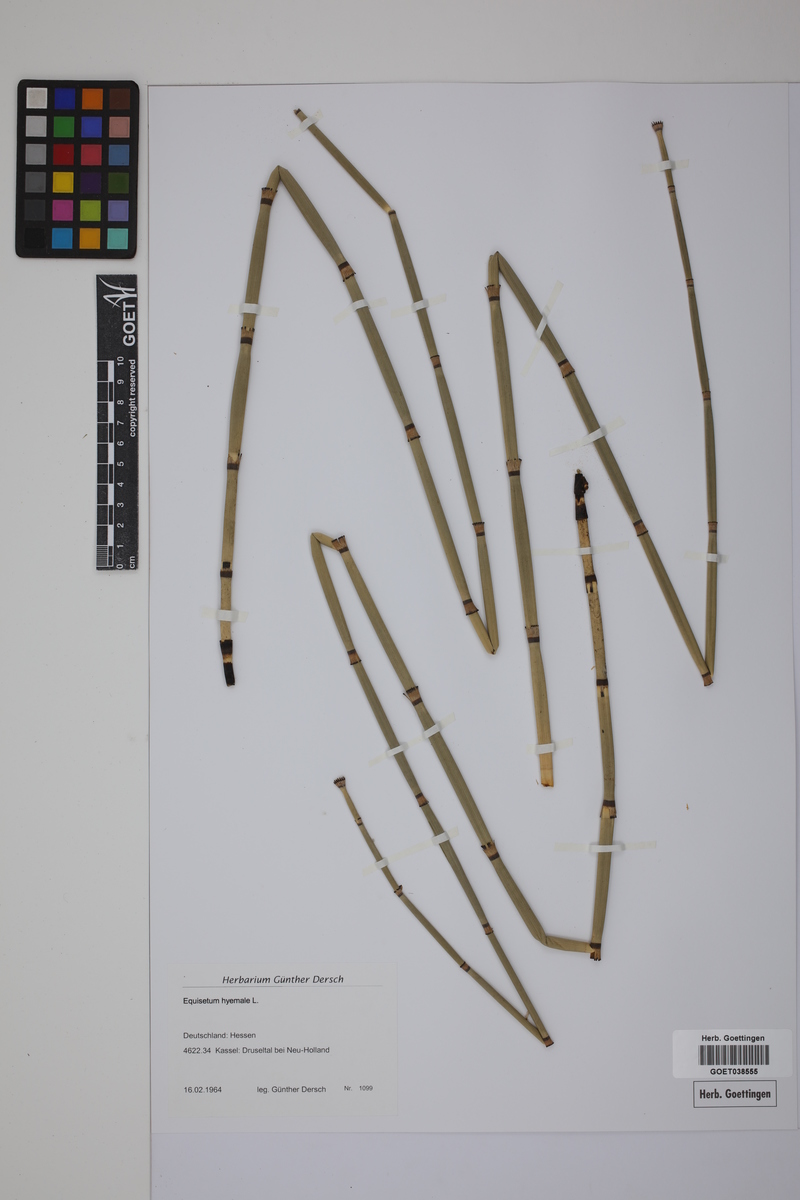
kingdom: Plantae
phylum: Tracheophyta
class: Polypodiopsida
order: Equisetales
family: Equisetaceae
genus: Equisetum
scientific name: Equisetum hyemale
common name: Rough horsetail
